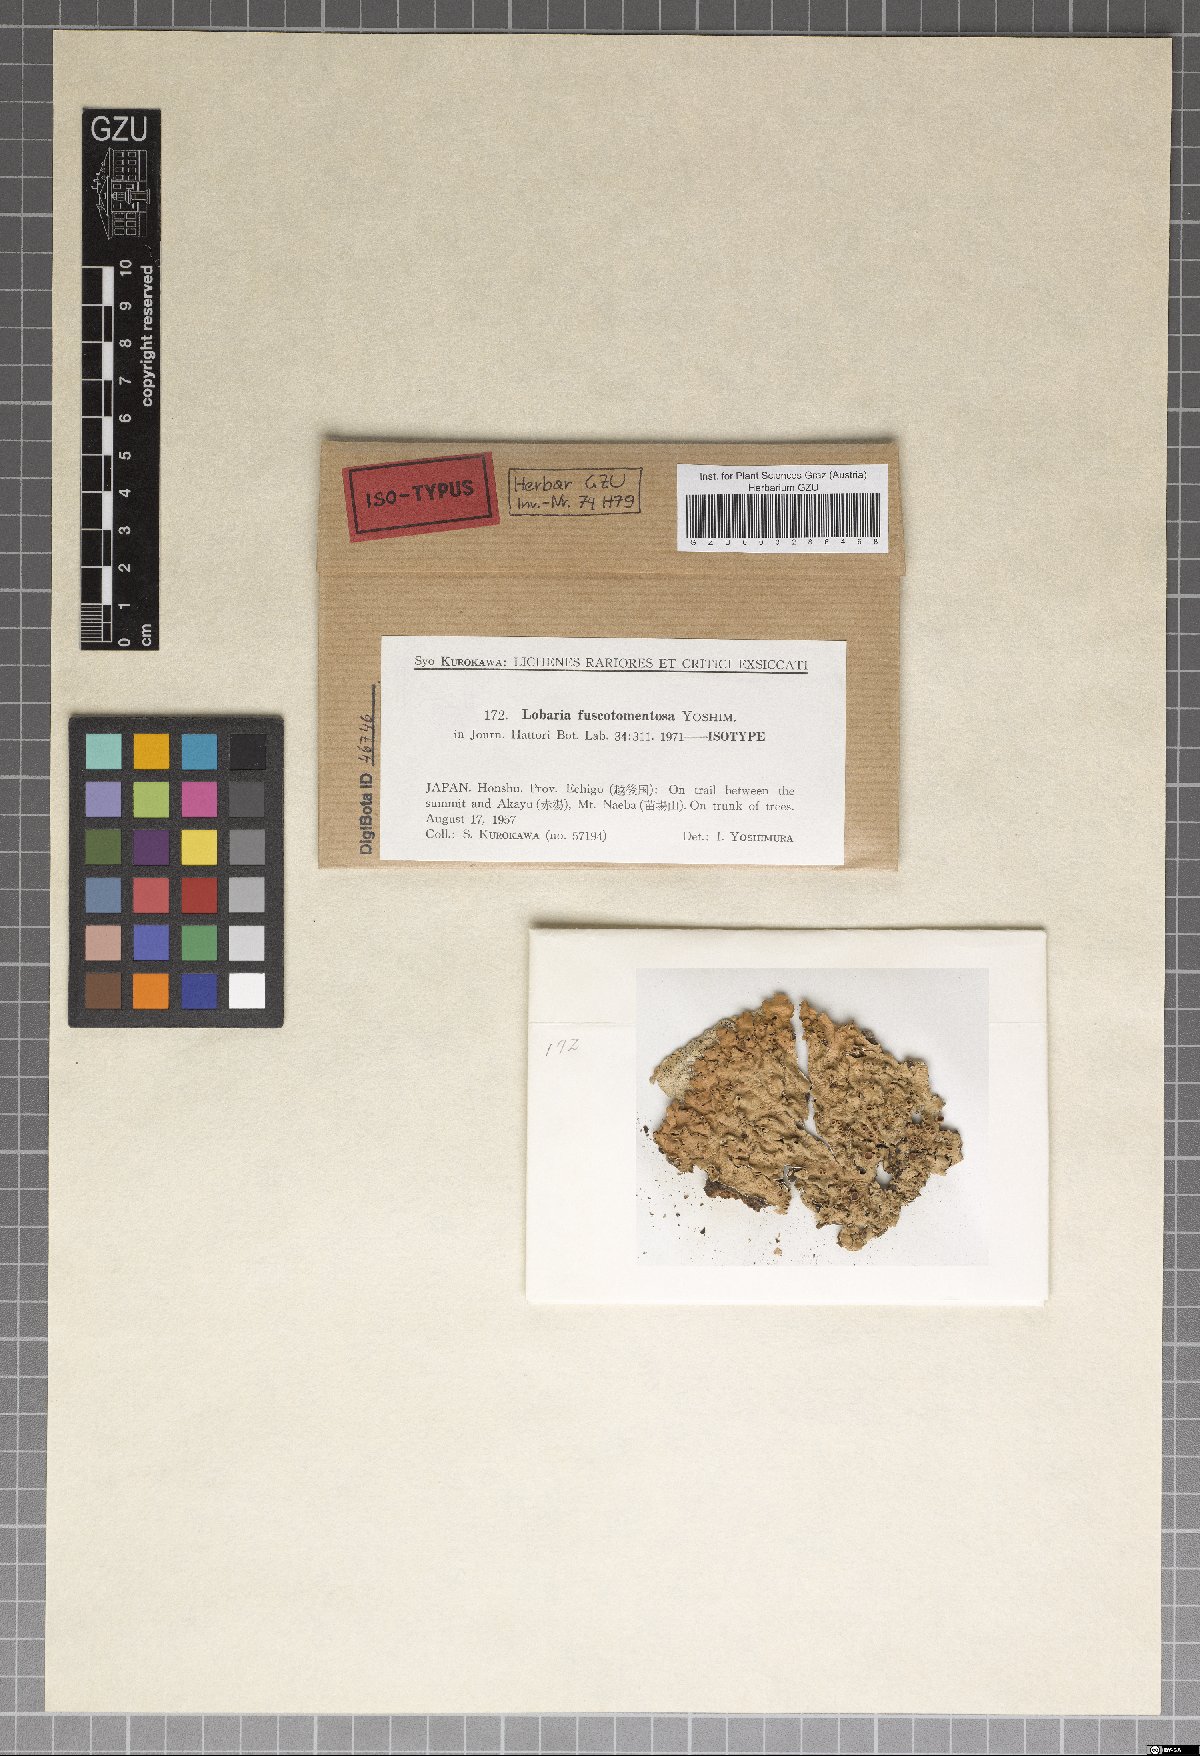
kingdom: Fungi
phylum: Ascomycota
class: Lecanoromycetes
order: Peltigerales
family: Lobariaceae
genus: Lobaria
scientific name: Lobaria fuscotomentosa
